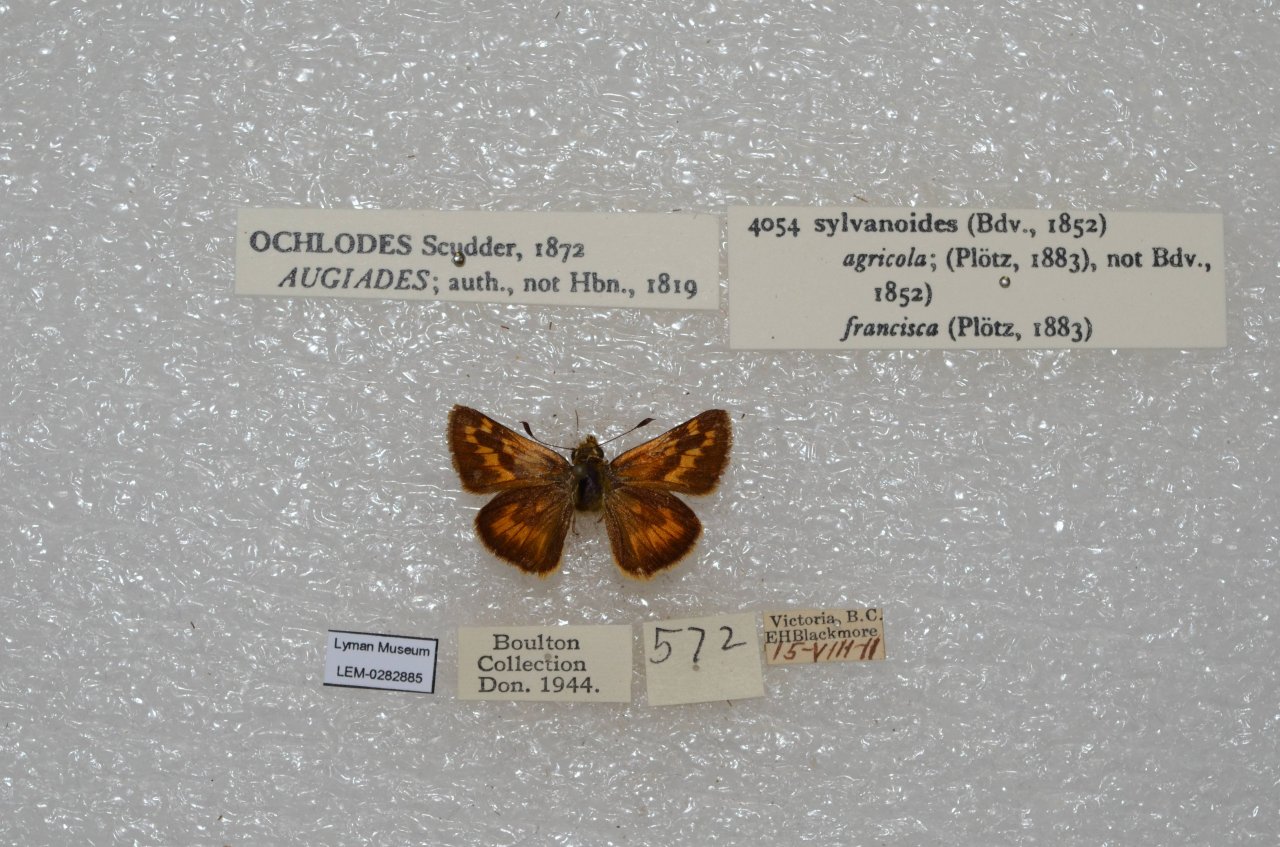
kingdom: Animalia
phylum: Arthropoda
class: Insecta
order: Lepidoptera
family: Hesperiidae
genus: Ochlodes
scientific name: Ochlodes sylvanoides
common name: Woodland Skipper
